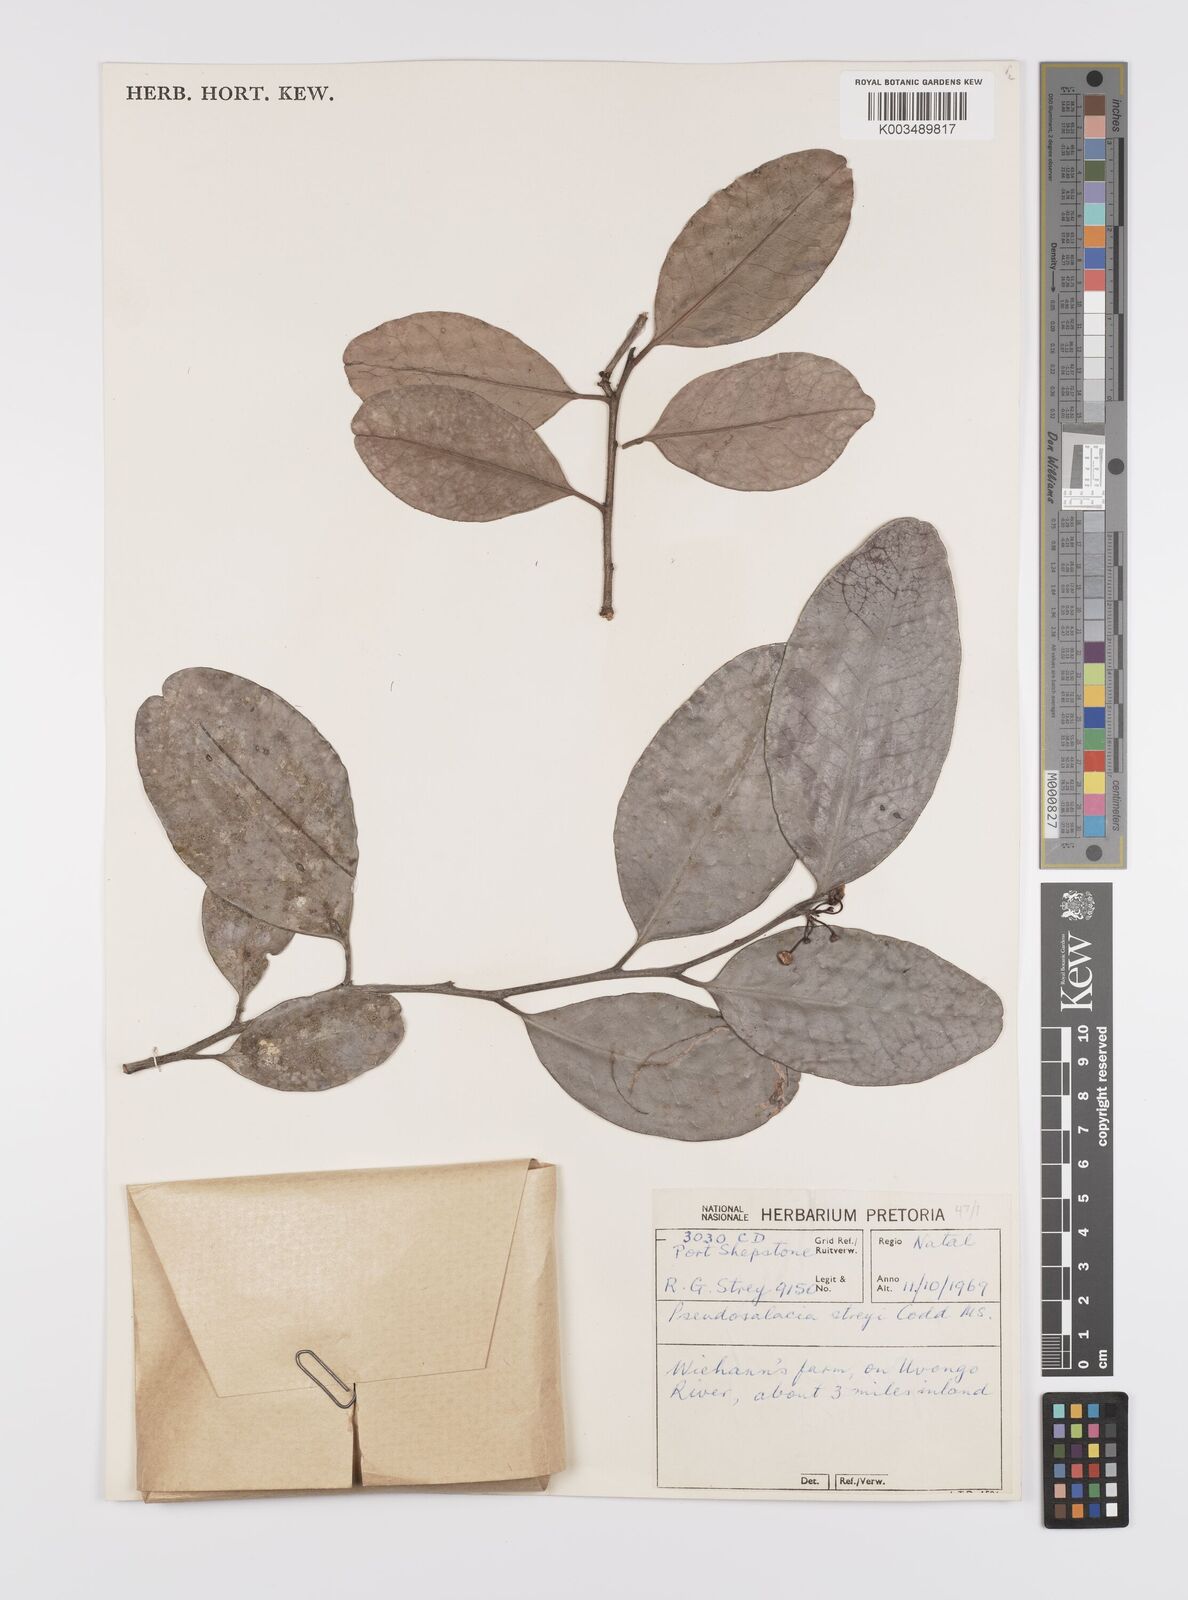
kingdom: Plantae
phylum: Tracheophyta
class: Magnoliopsida
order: Celastrales
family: Celastraceae
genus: Pseudosalacia
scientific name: Pseudosalacia streyi
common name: Bastard lemon
